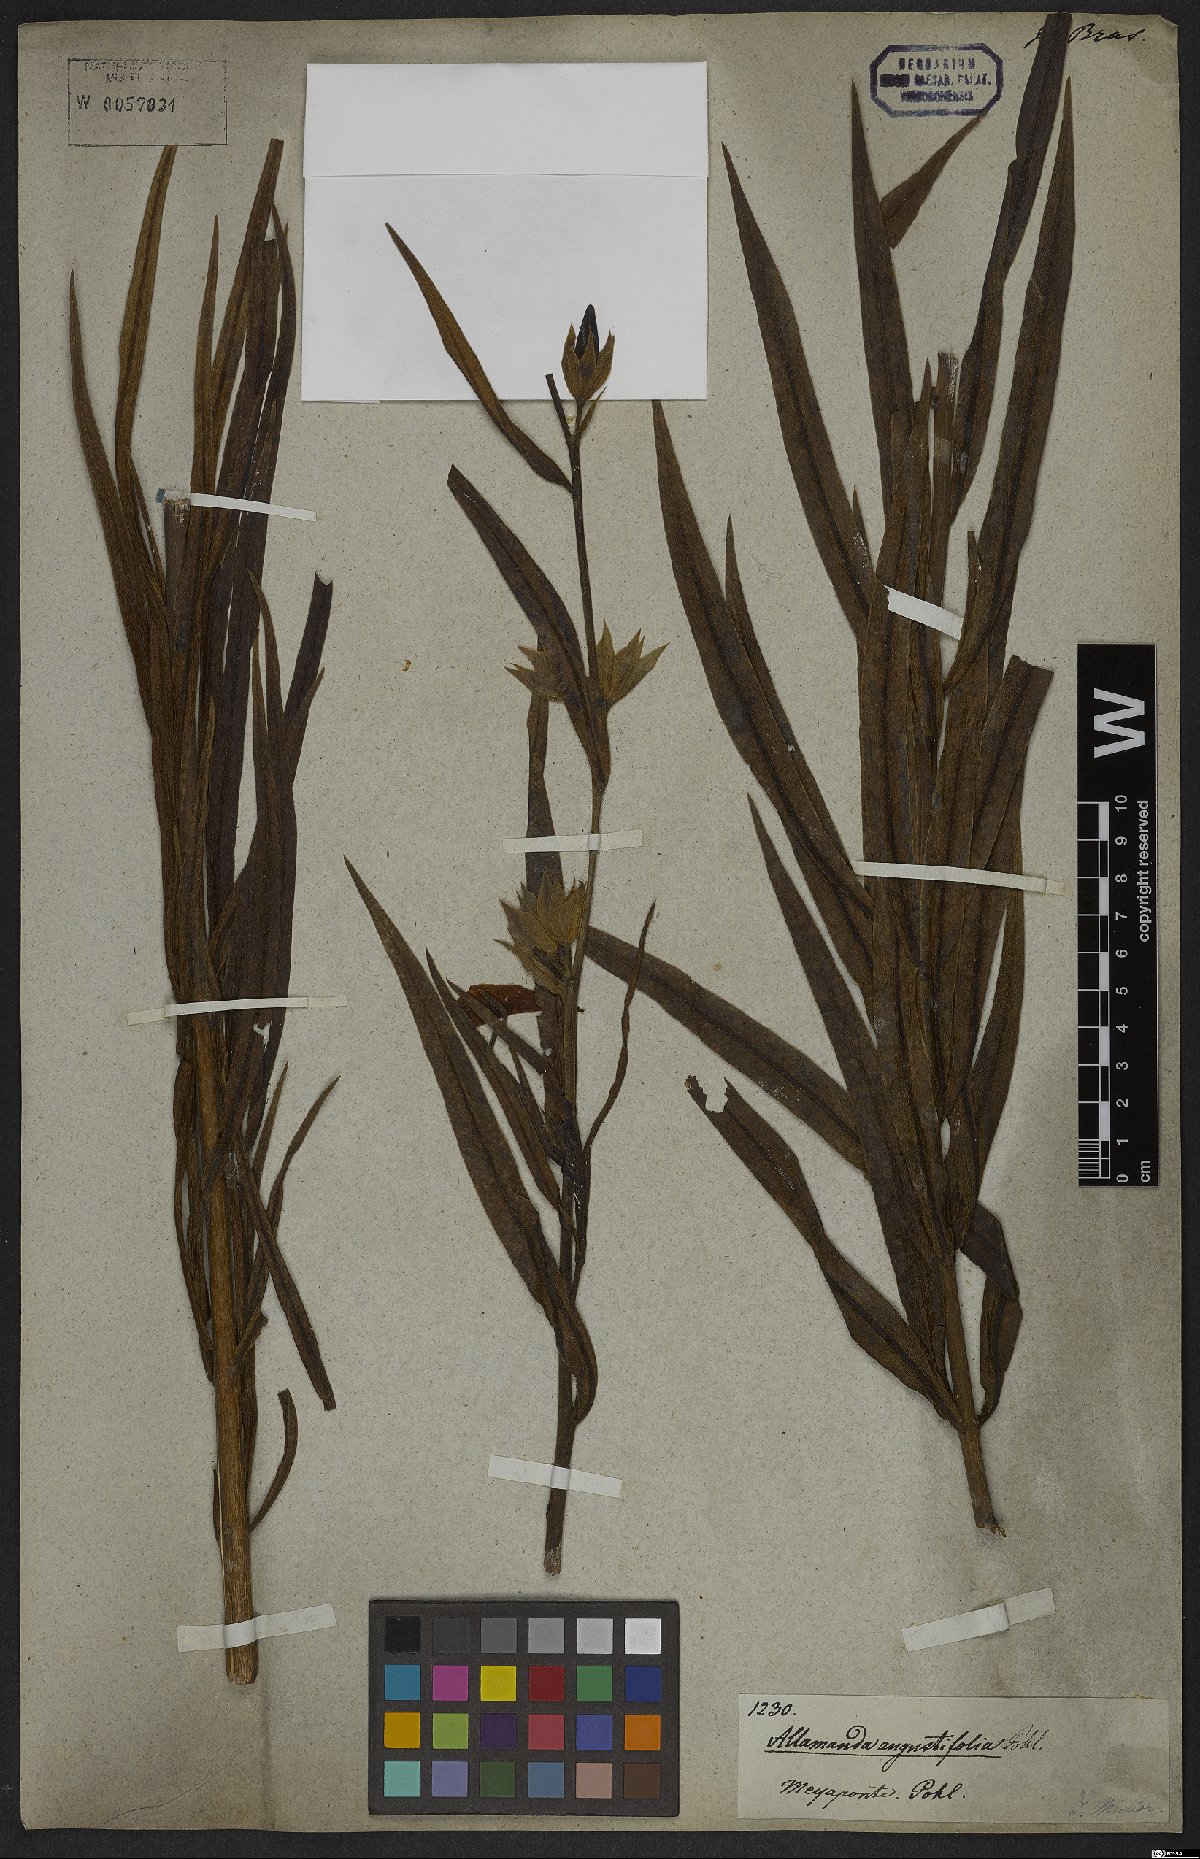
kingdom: Plantae
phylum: Tracheophyta
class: Magnoliopsida
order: Gentianales
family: Apocynaceae
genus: Allamanda
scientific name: Allamanda angustifolia
